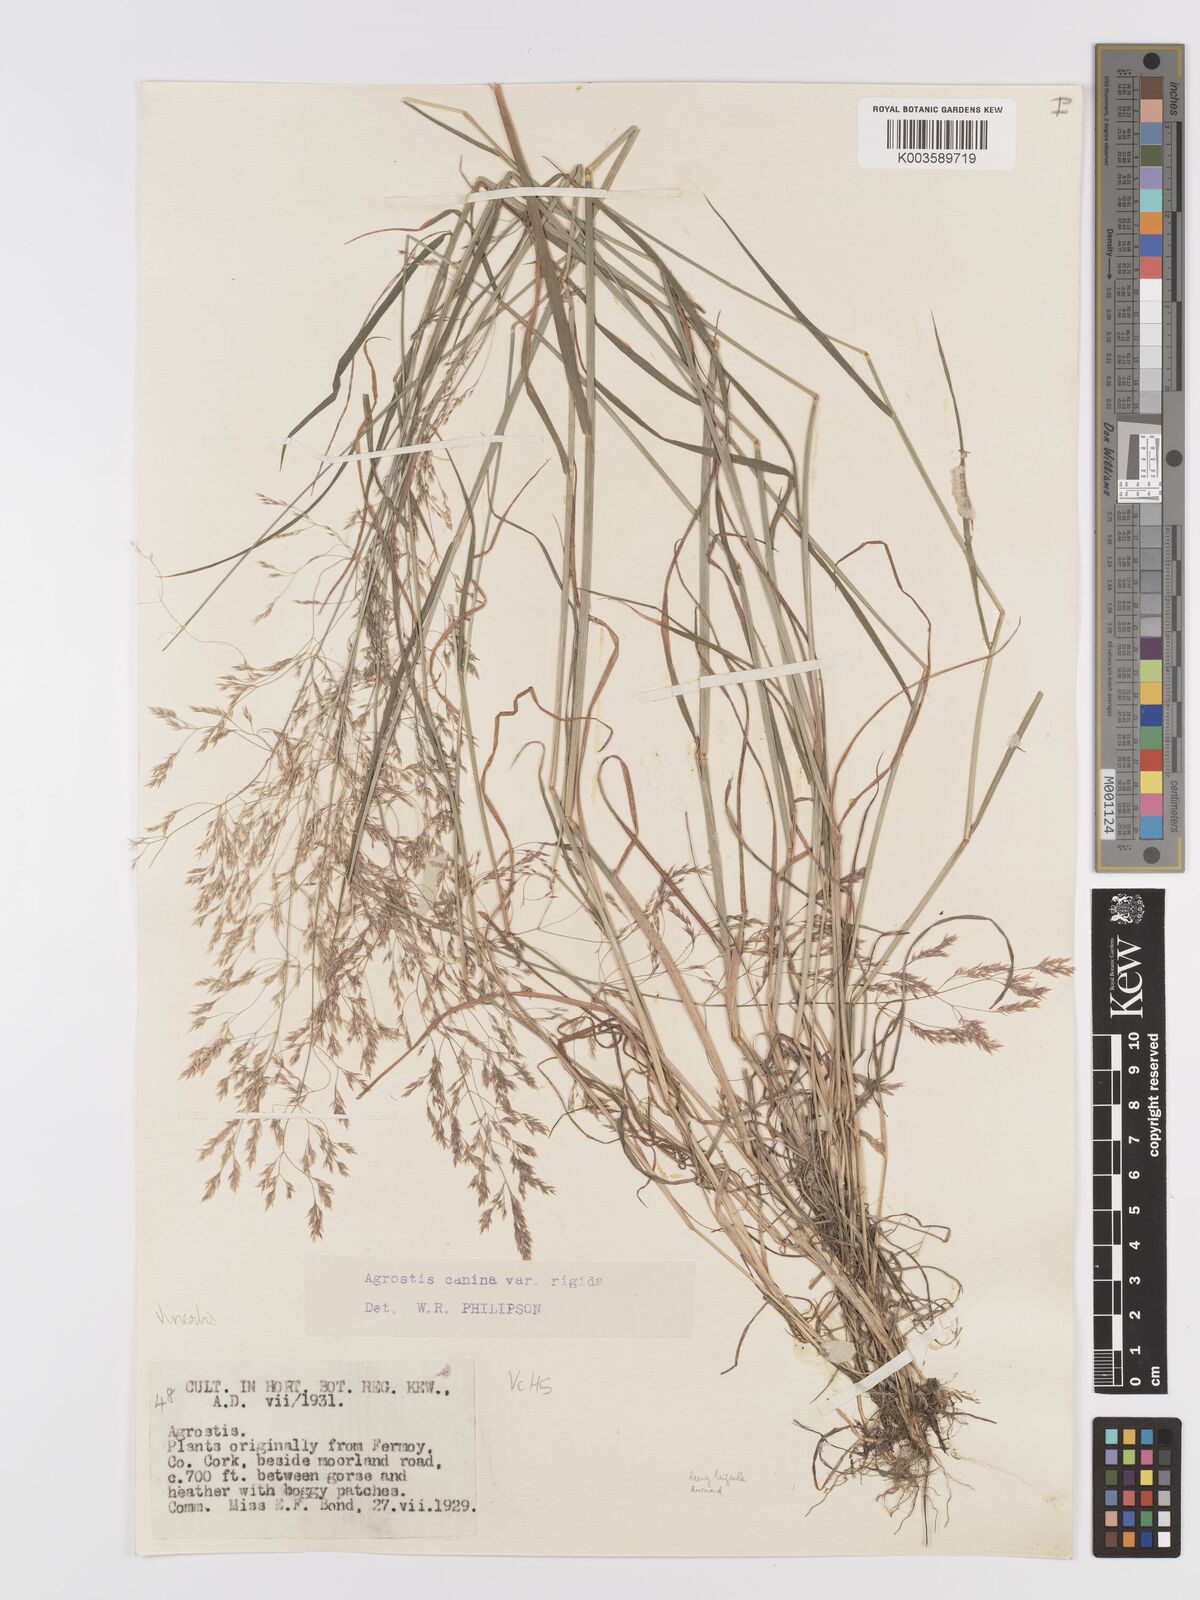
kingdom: Plantae
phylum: Tracheophyta
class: Liliopsida
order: Poales
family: Poaceae
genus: Agrostis
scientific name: Agrostis
